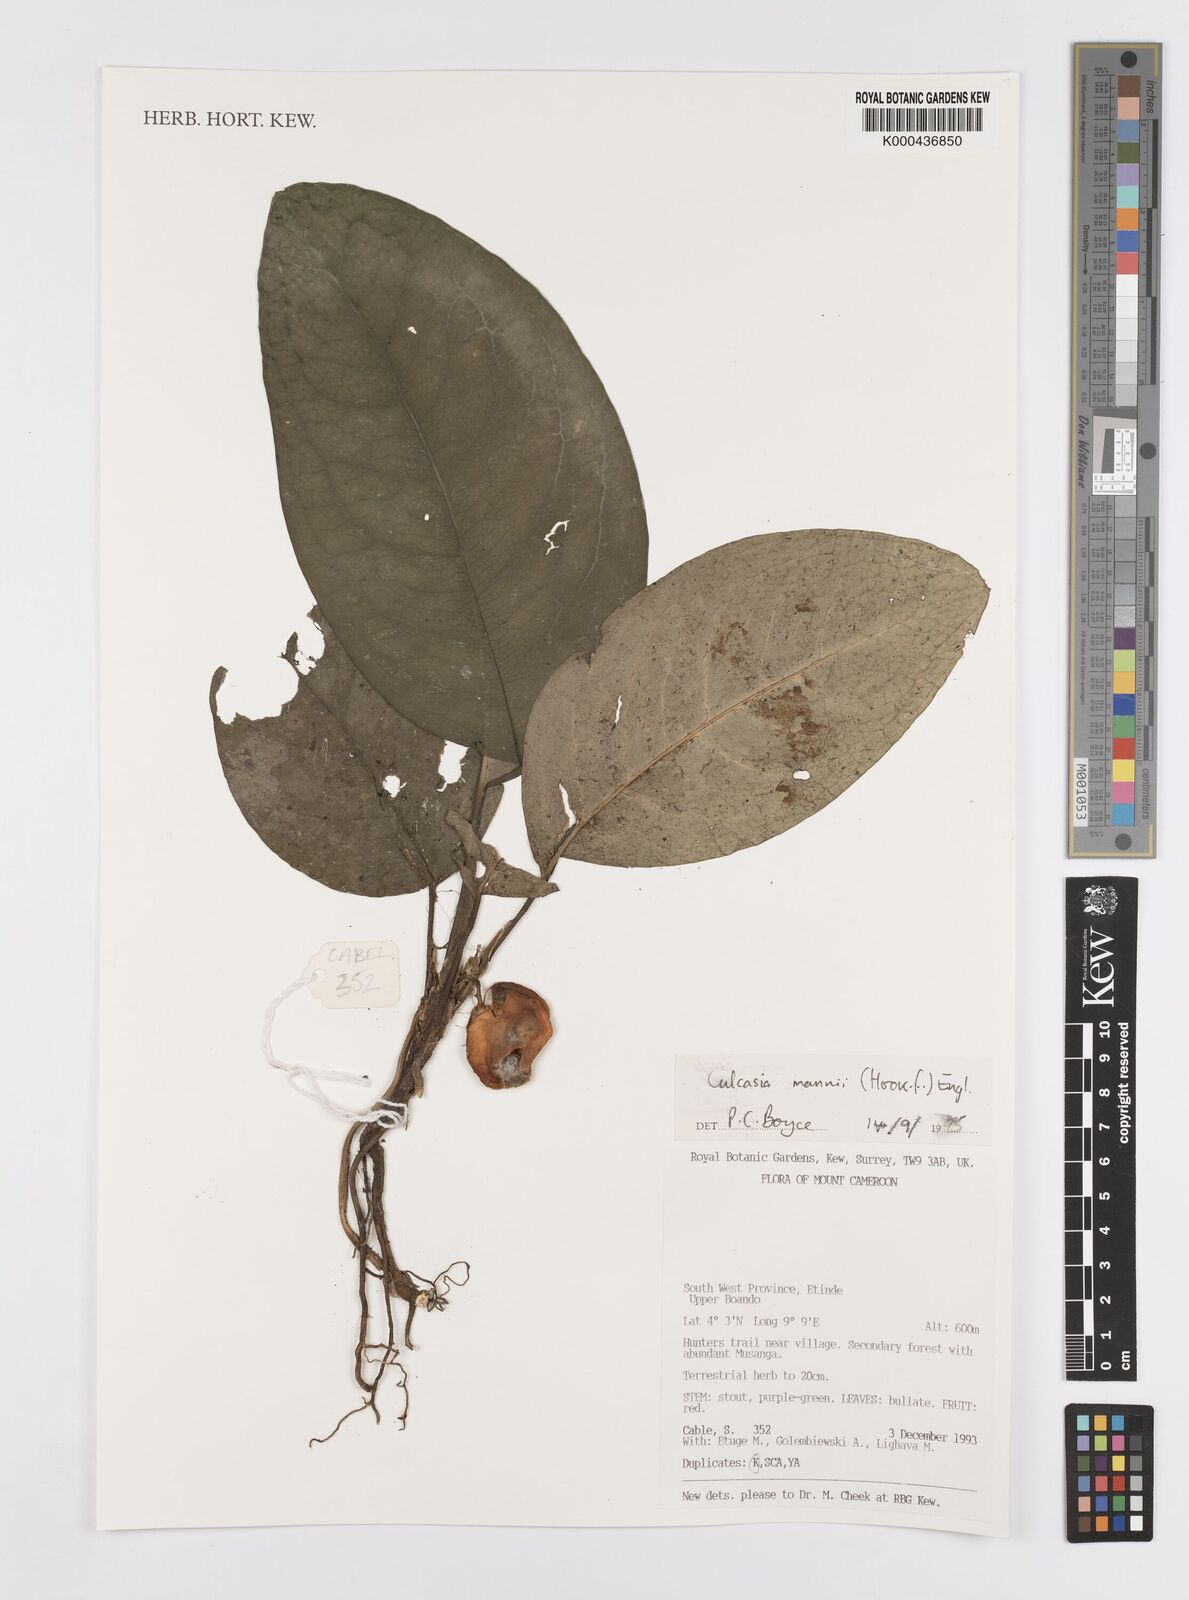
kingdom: Plantae
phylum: Tracheophyta
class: Liliopsida
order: Alismatales
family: Araceae
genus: Culcasia
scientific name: Culcasia mannii
